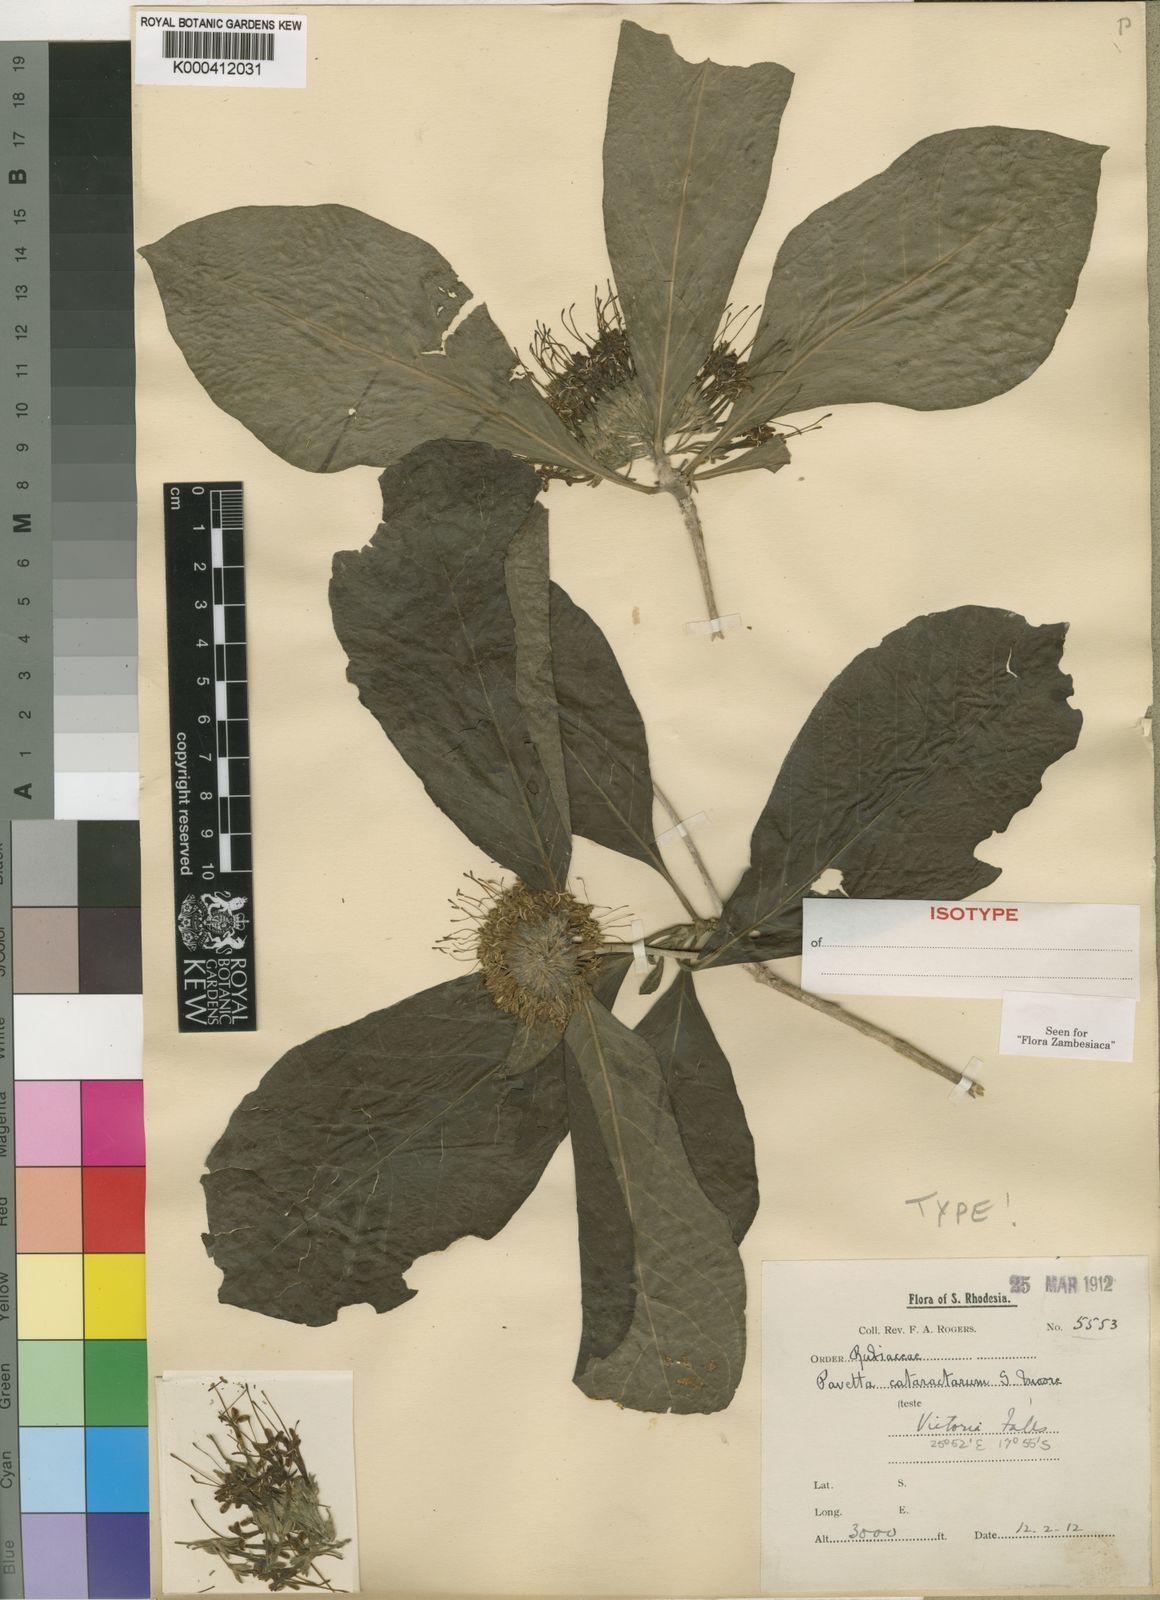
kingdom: Plantae
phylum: Tracheophyta
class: Magnoliopsida
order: Gentianales
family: Rubiaceae
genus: Pavetta
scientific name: Pavetta cataractarum
